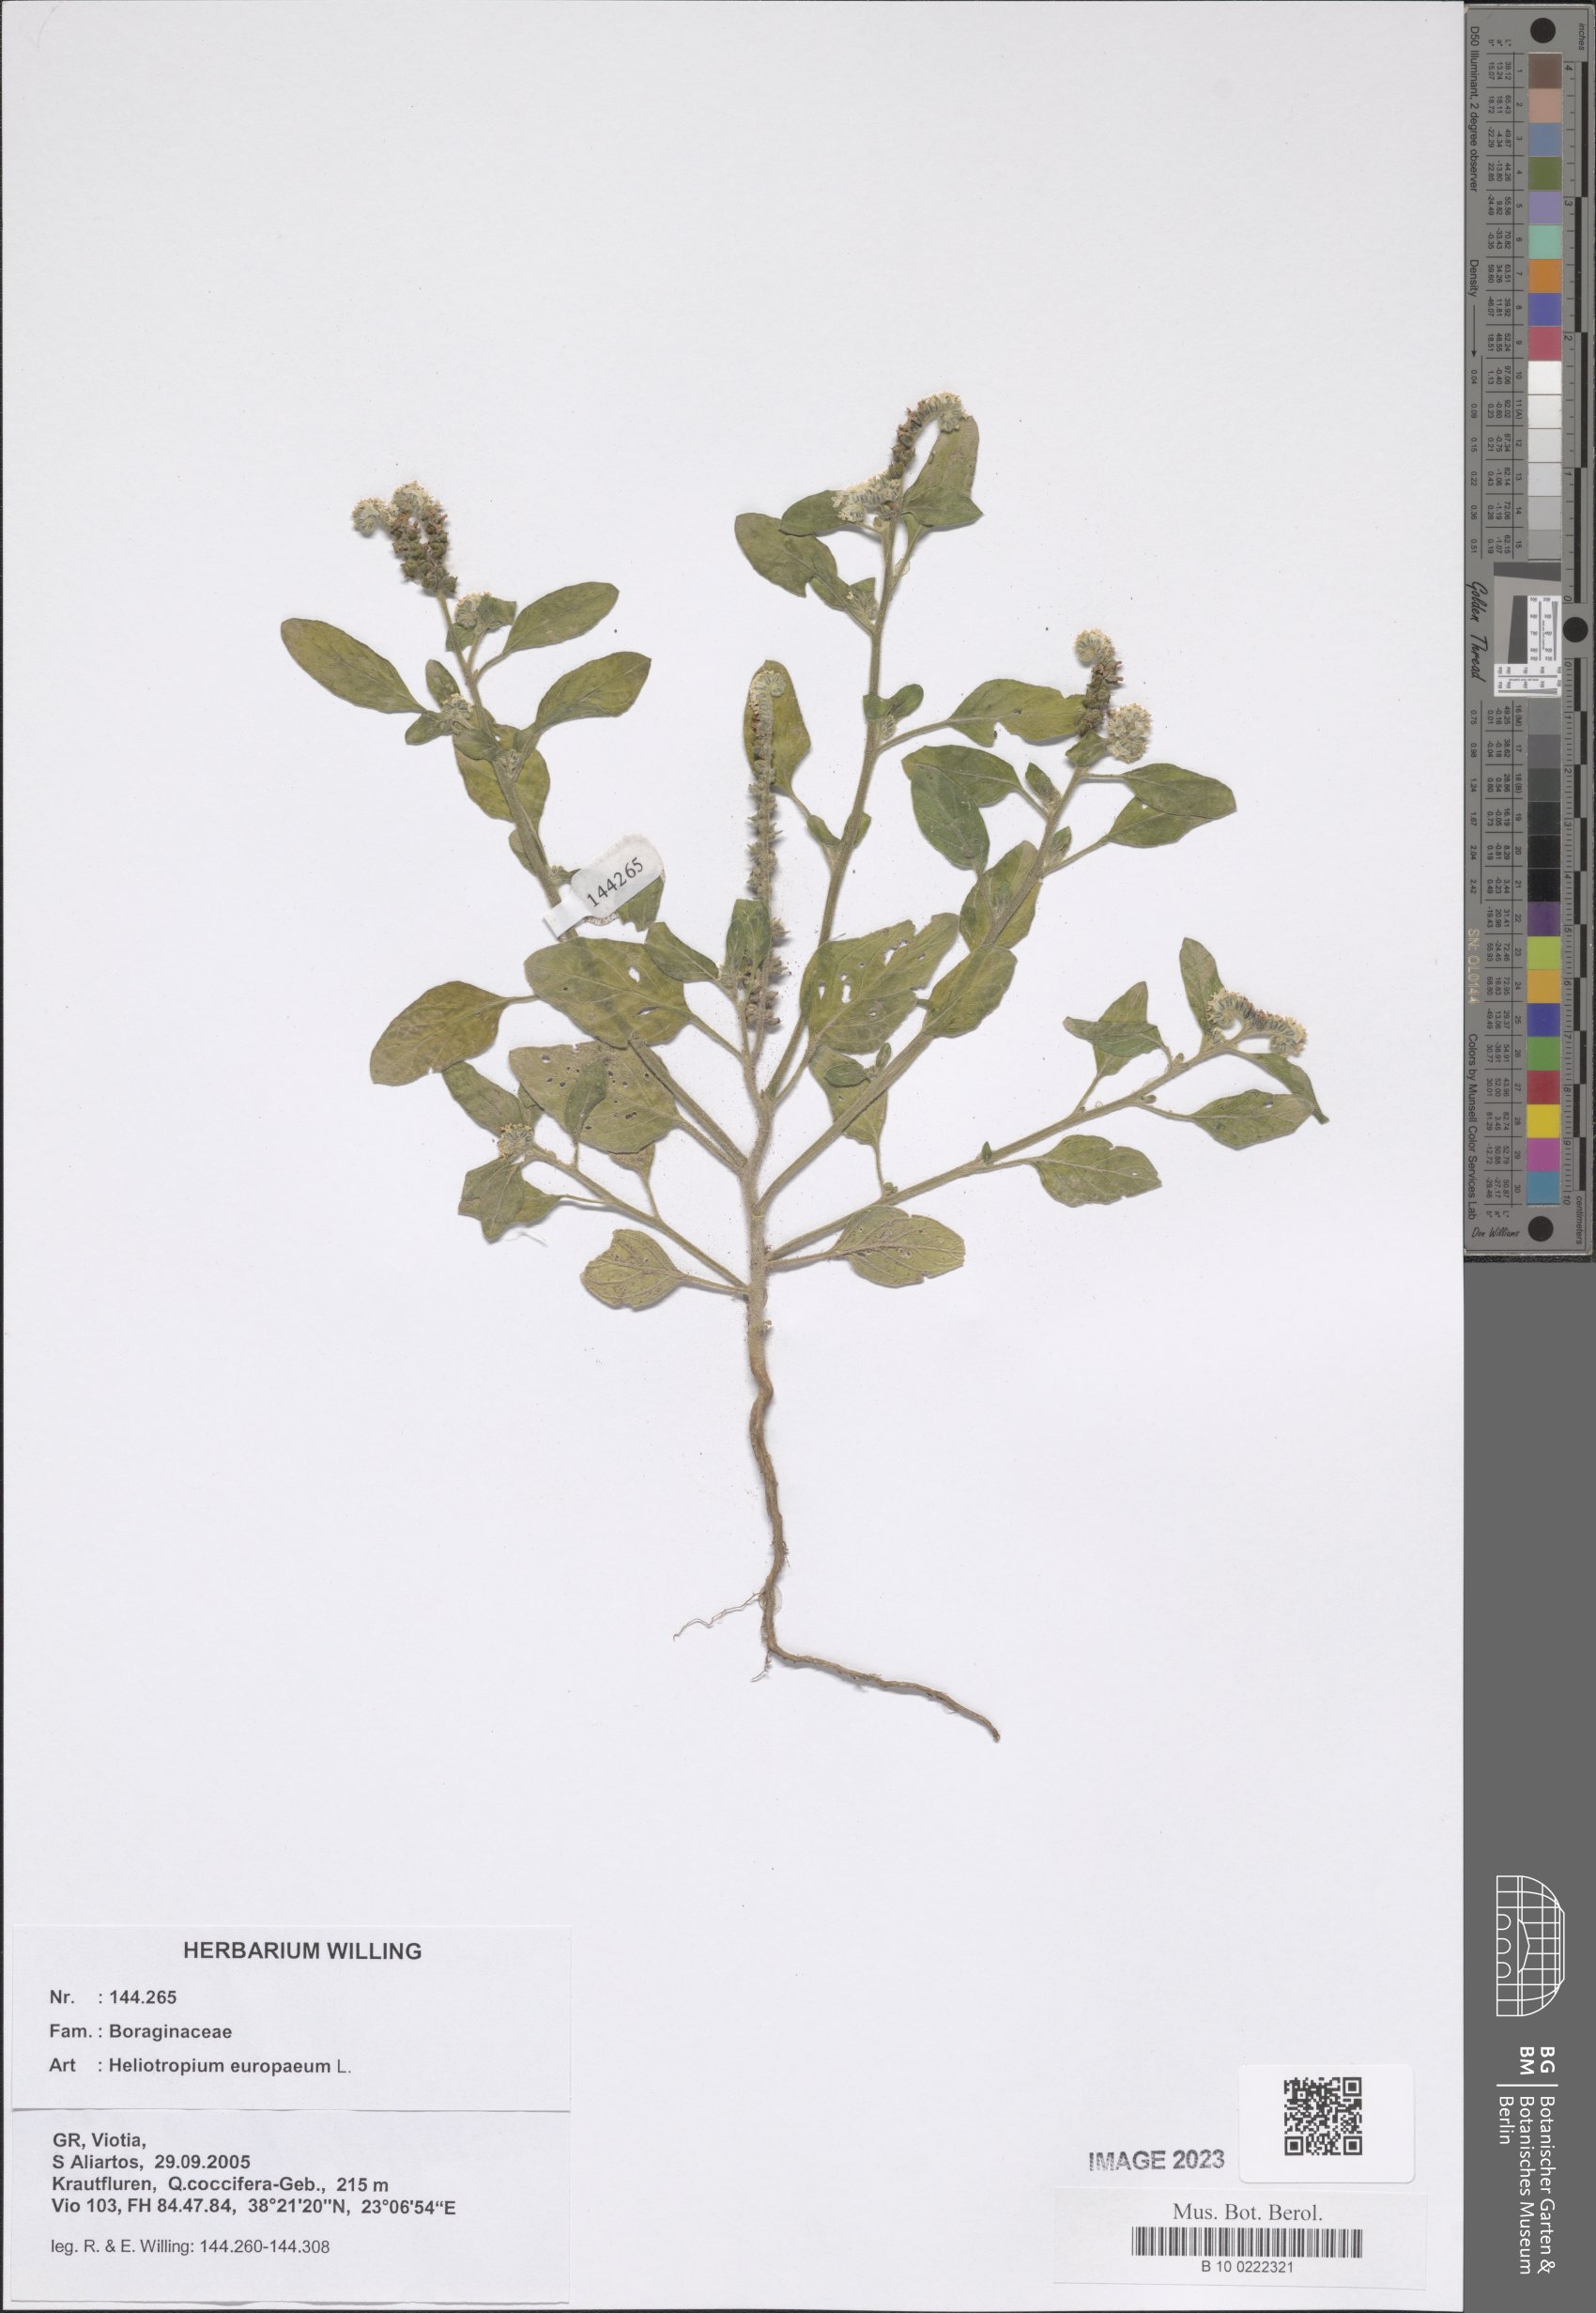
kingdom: Plantae
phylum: Tracheophyta
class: Magnoliopsida
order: Boraginales
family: Heliotropiaceae
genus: Heliotropium
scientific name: Heliotropium europaeum
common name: European heliotrope
